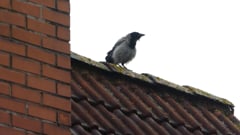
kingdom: Animalia
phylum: Chordata
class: Aves
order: Passeriformes
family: Corvidae
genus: Corvus
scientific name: Corvus cornix
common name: Hooded crow
